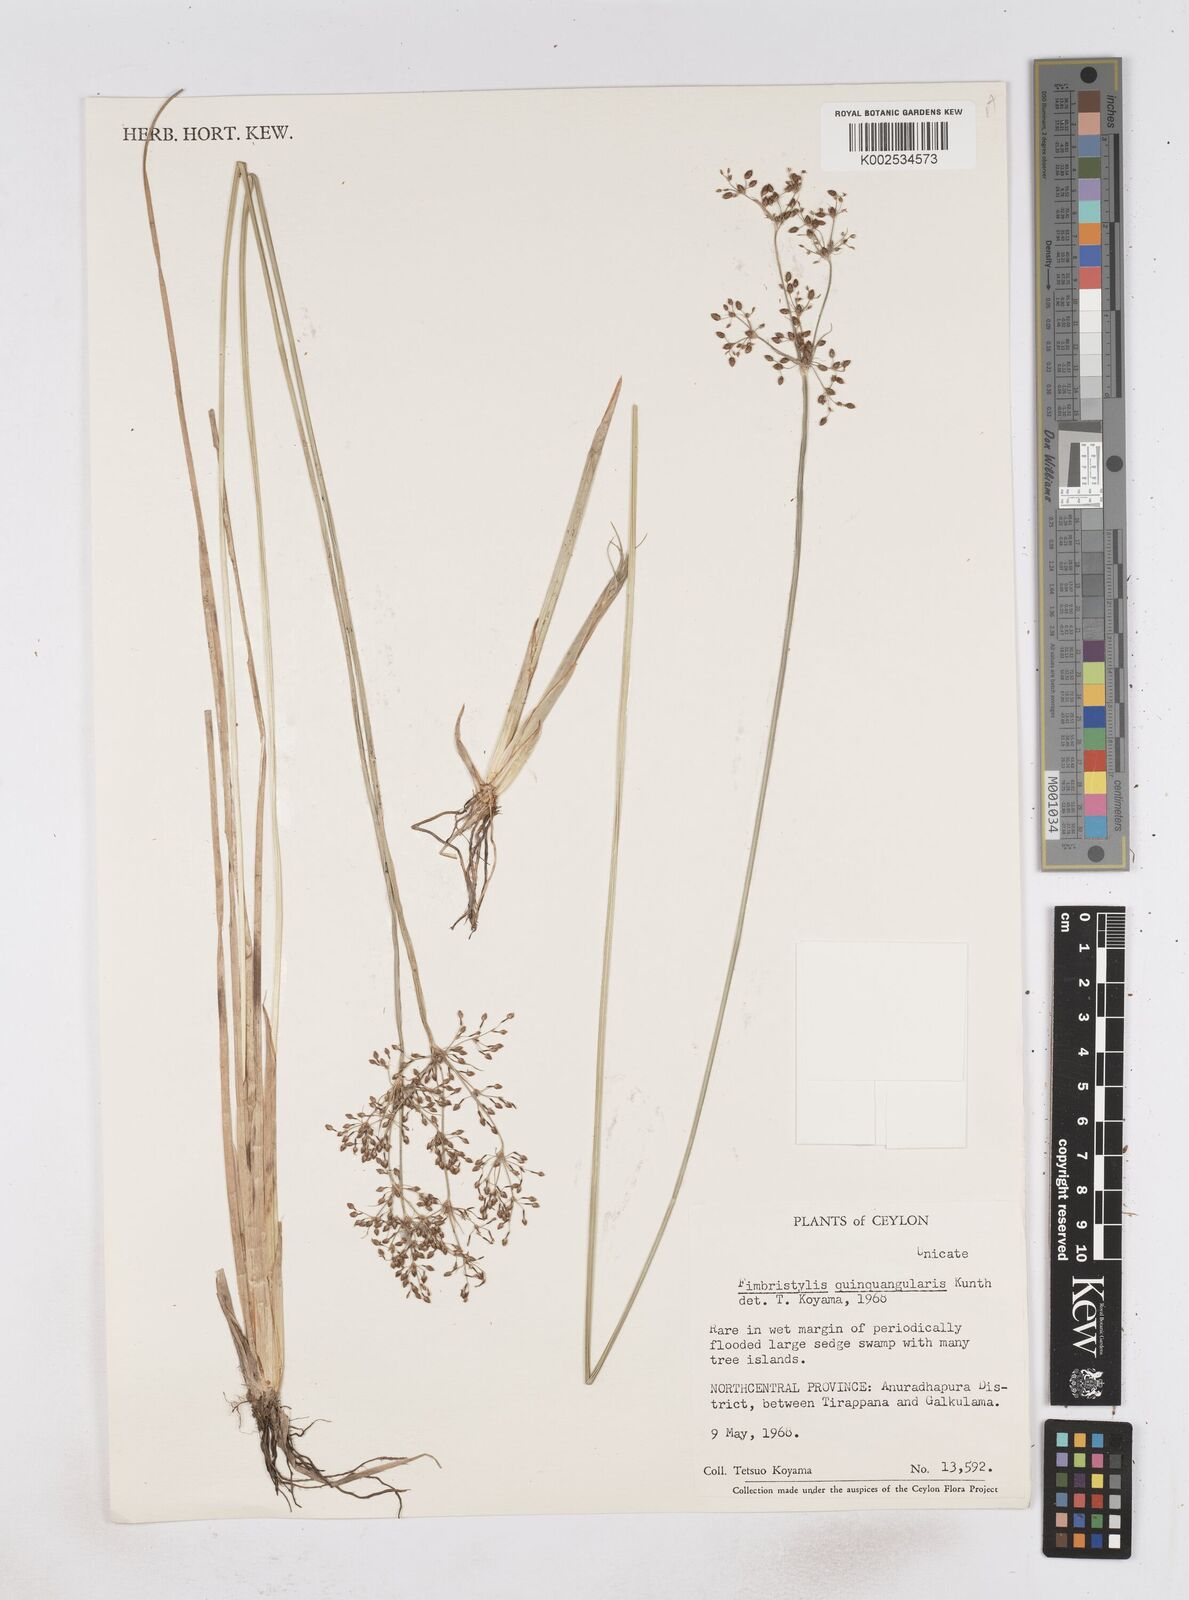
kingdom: Plantae
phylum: Tracheophyta
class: Liliopsida
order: Poales
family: Cyperaceae
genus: Fimbristylis
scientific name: Fimbristylis quinquangularis
